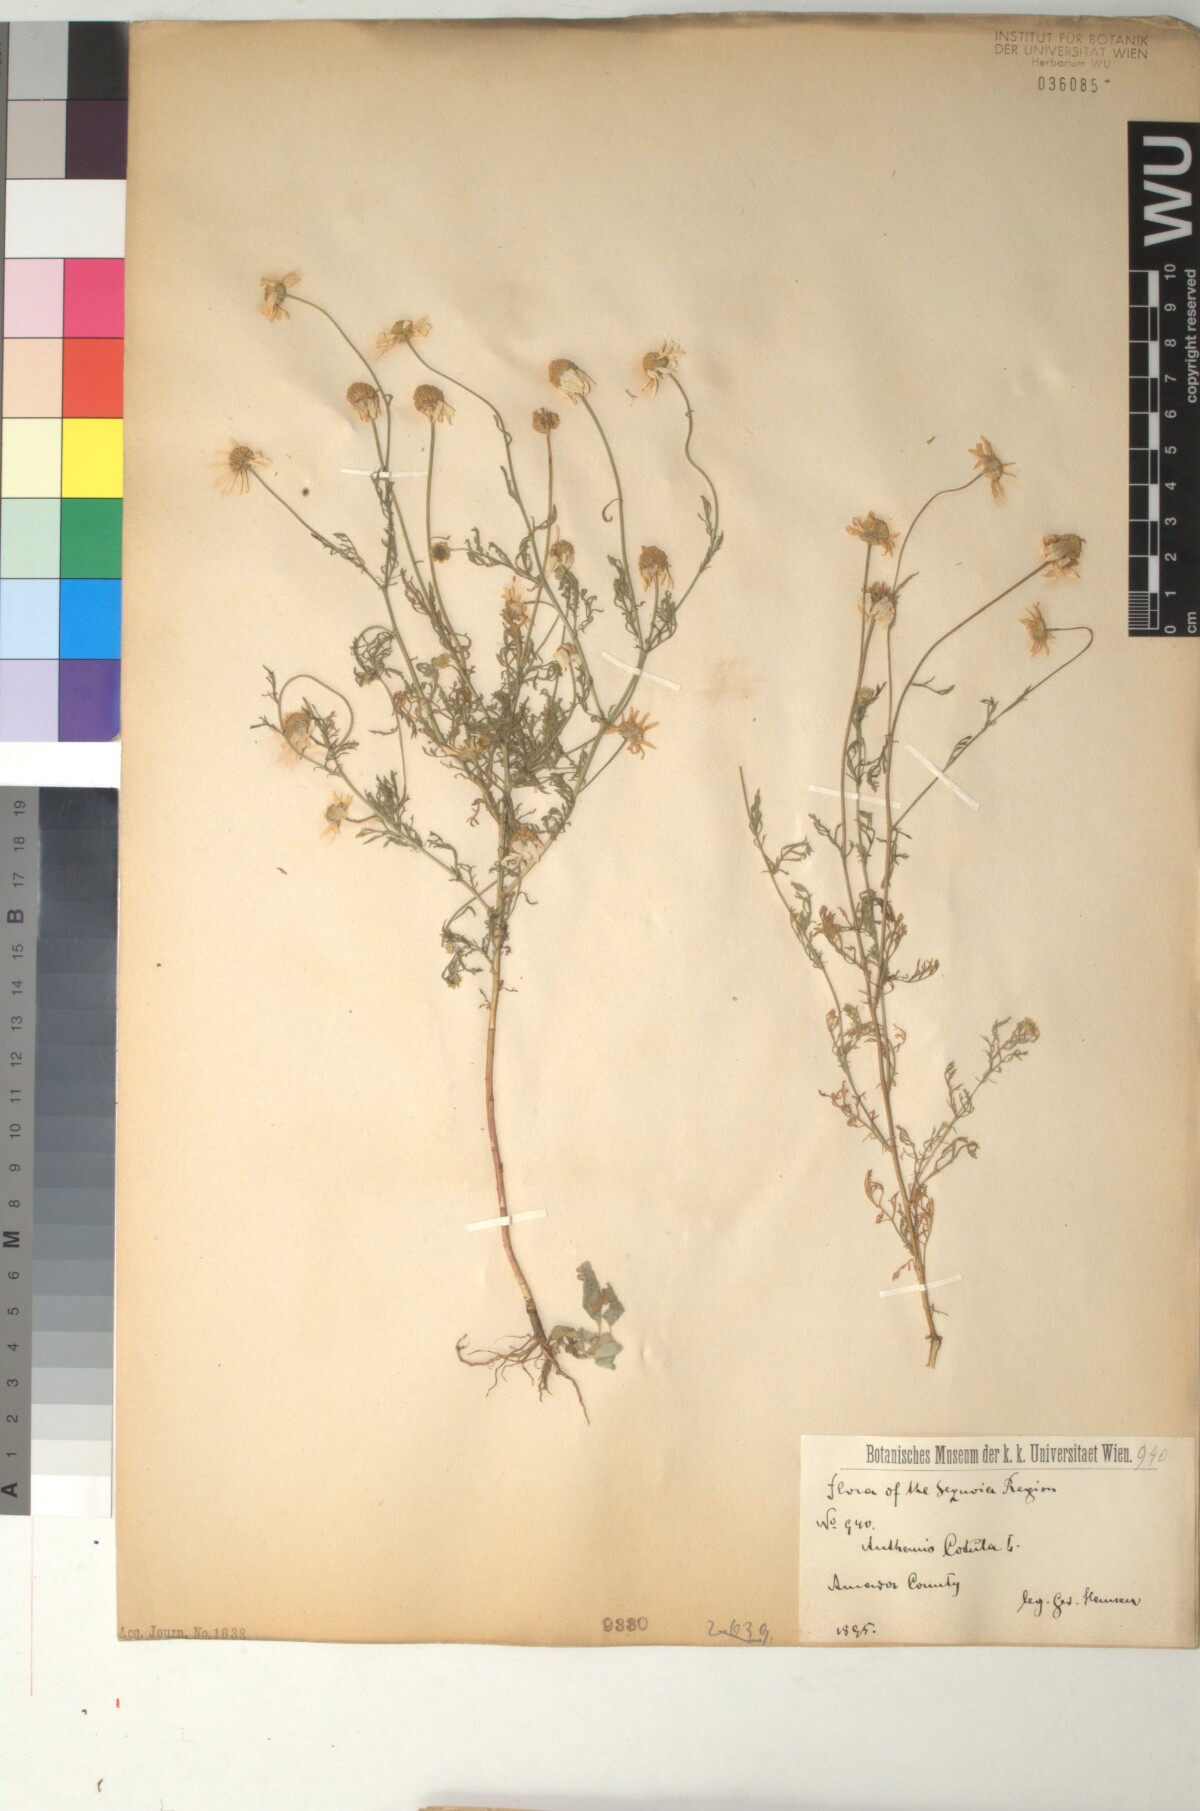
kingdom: Plantae
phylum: Tracheophyta
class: Magnoliopsida
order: Asterales
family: Asteraceae
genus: Anthemis
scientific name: Anthemis cotula
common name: Stinking chamomile
